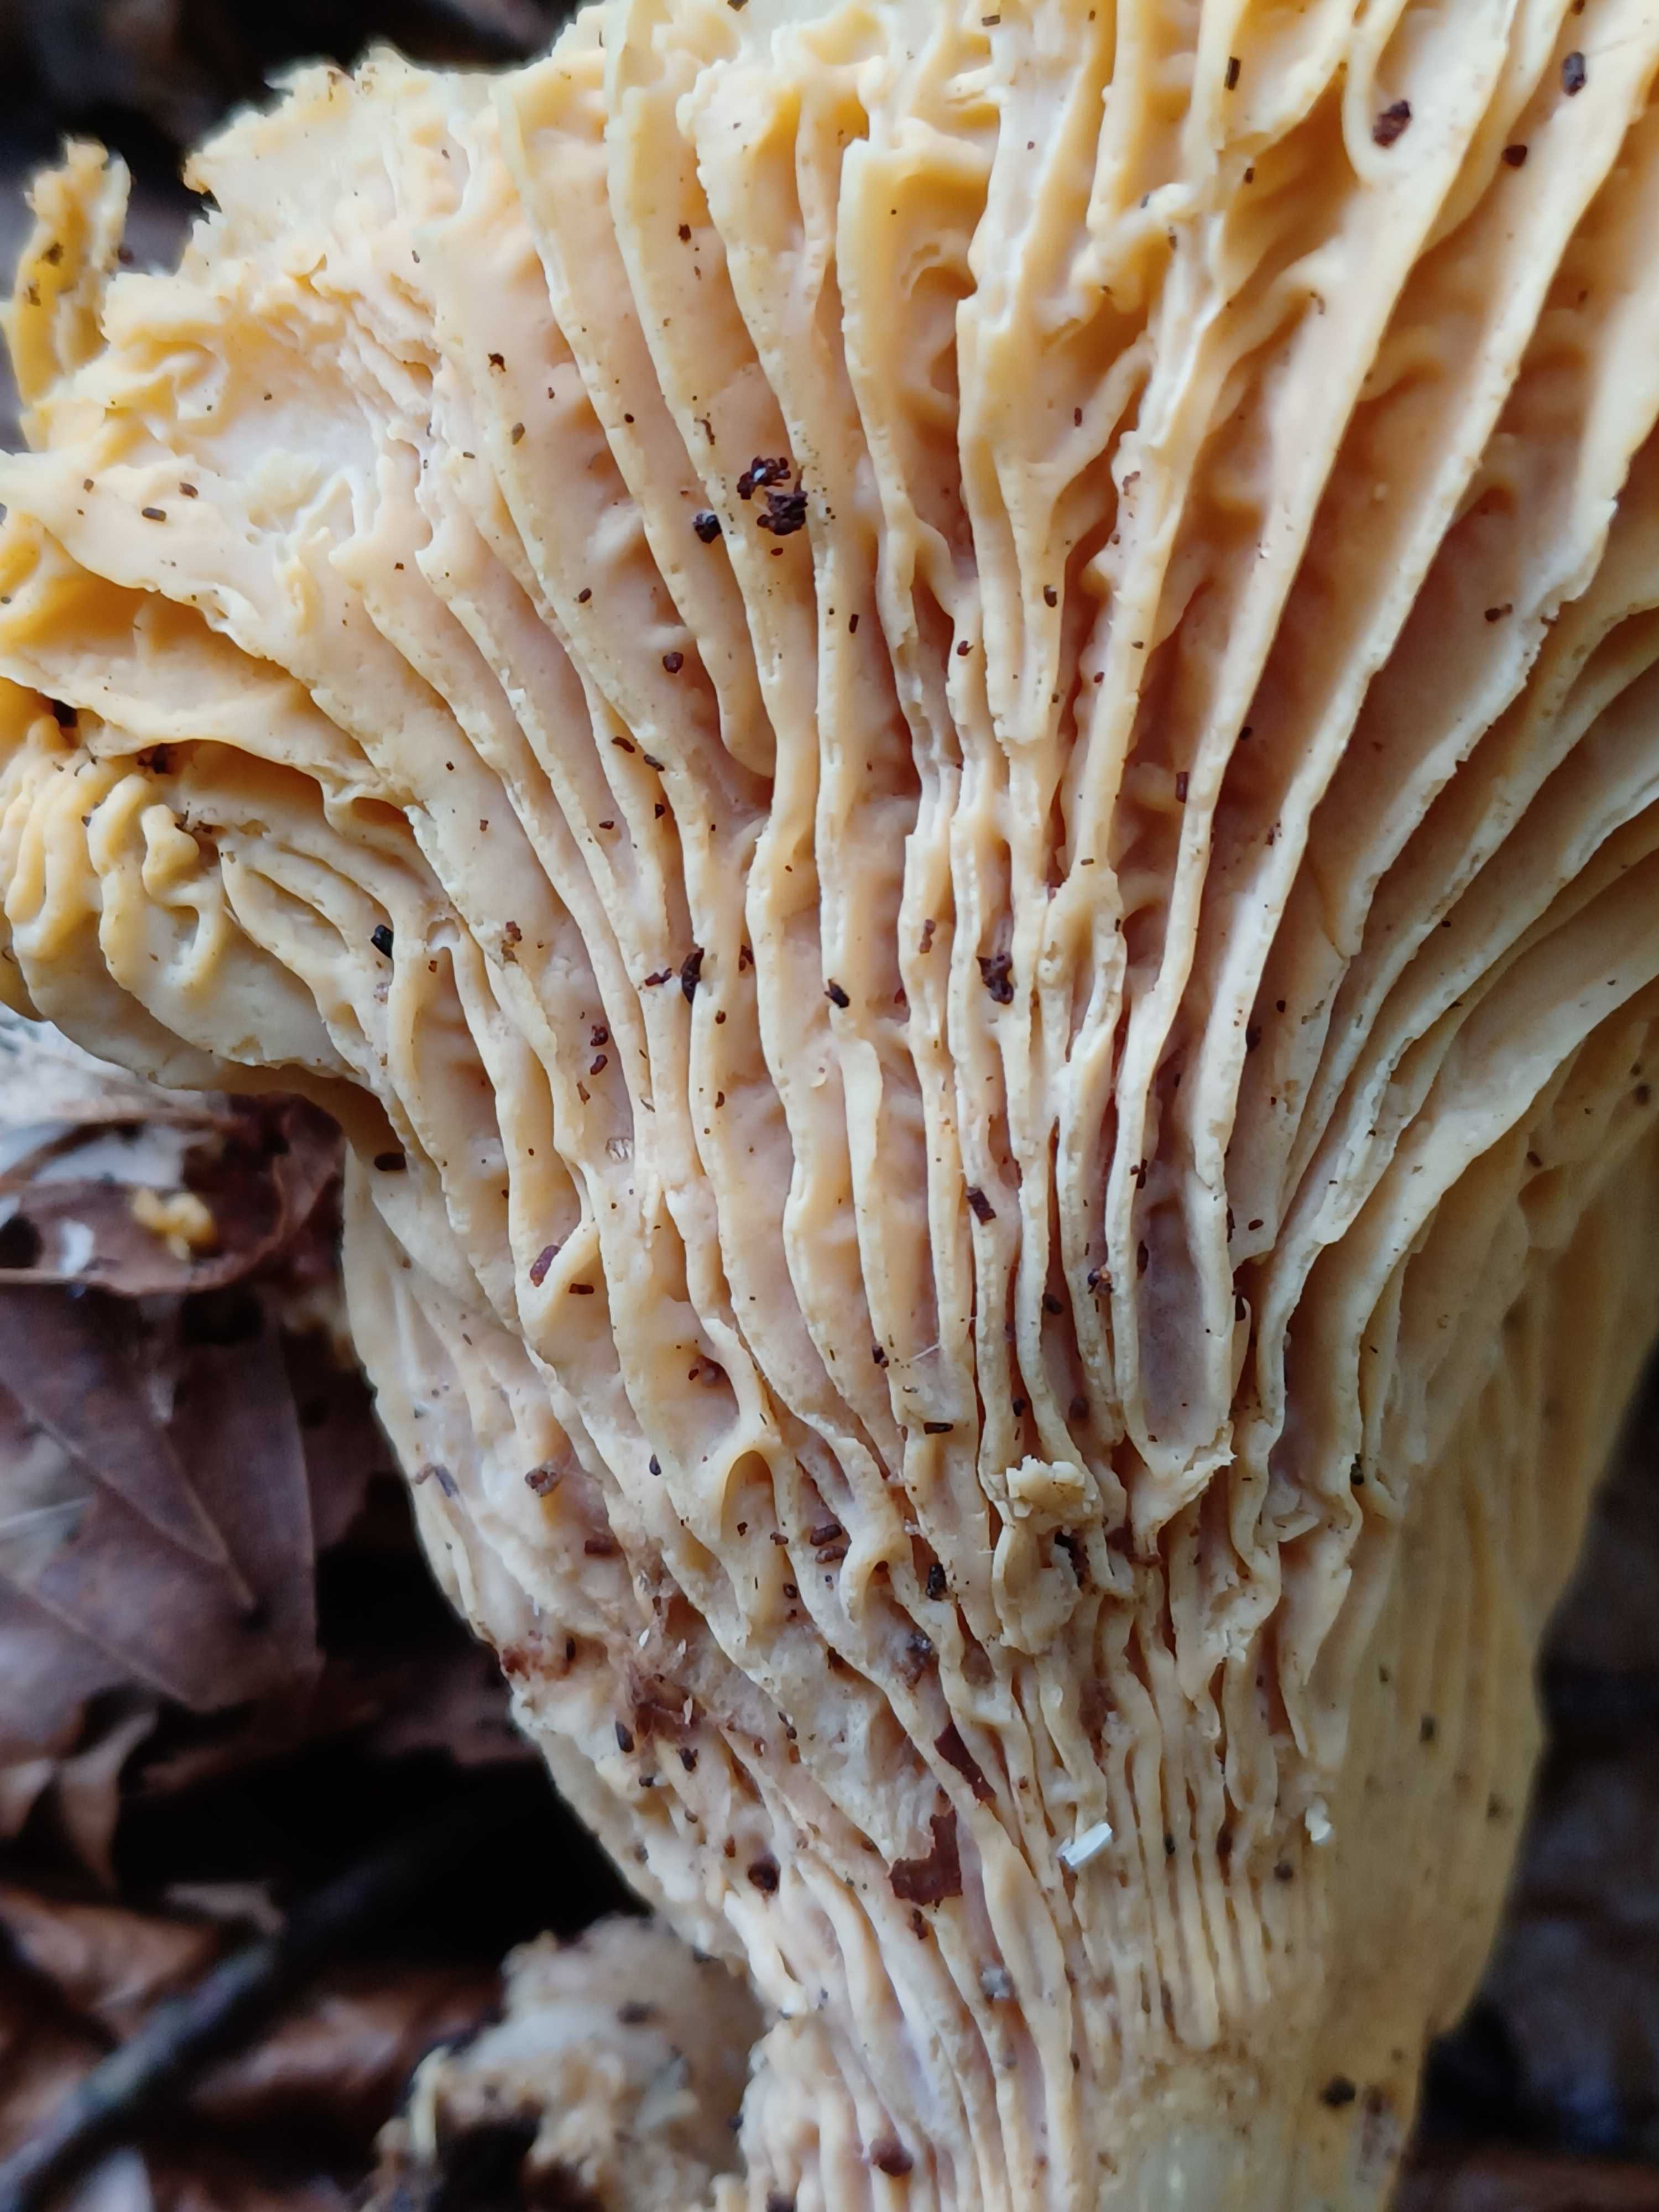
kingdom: Fungi
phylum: Basidiomycota
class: Agaricomycetes
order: Cantharellales
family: Hydnaceae
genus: Cantharellus
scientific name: Cantharellus
